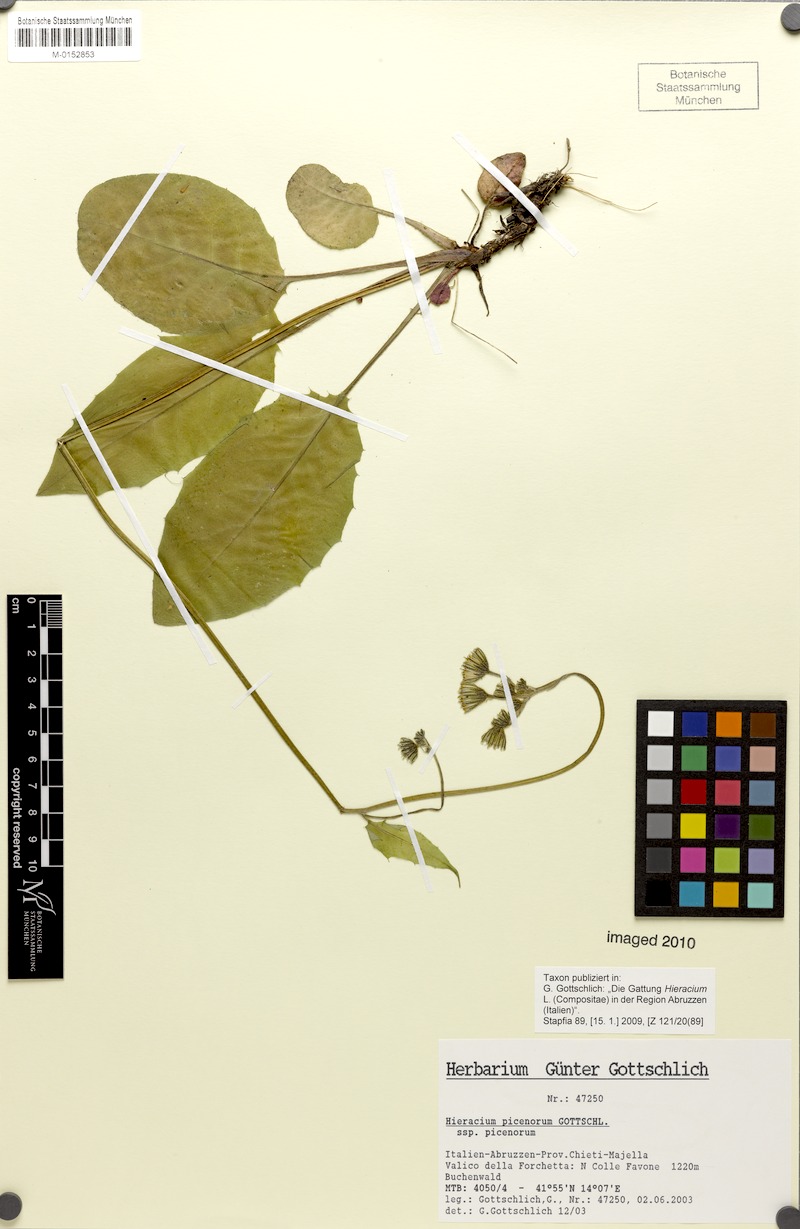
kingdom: Plantae
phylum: Tracheophyta
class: Magnoliopsida
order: Asterales
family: Asteraceae
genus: Hieracium
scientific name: Hieracium picenorum
